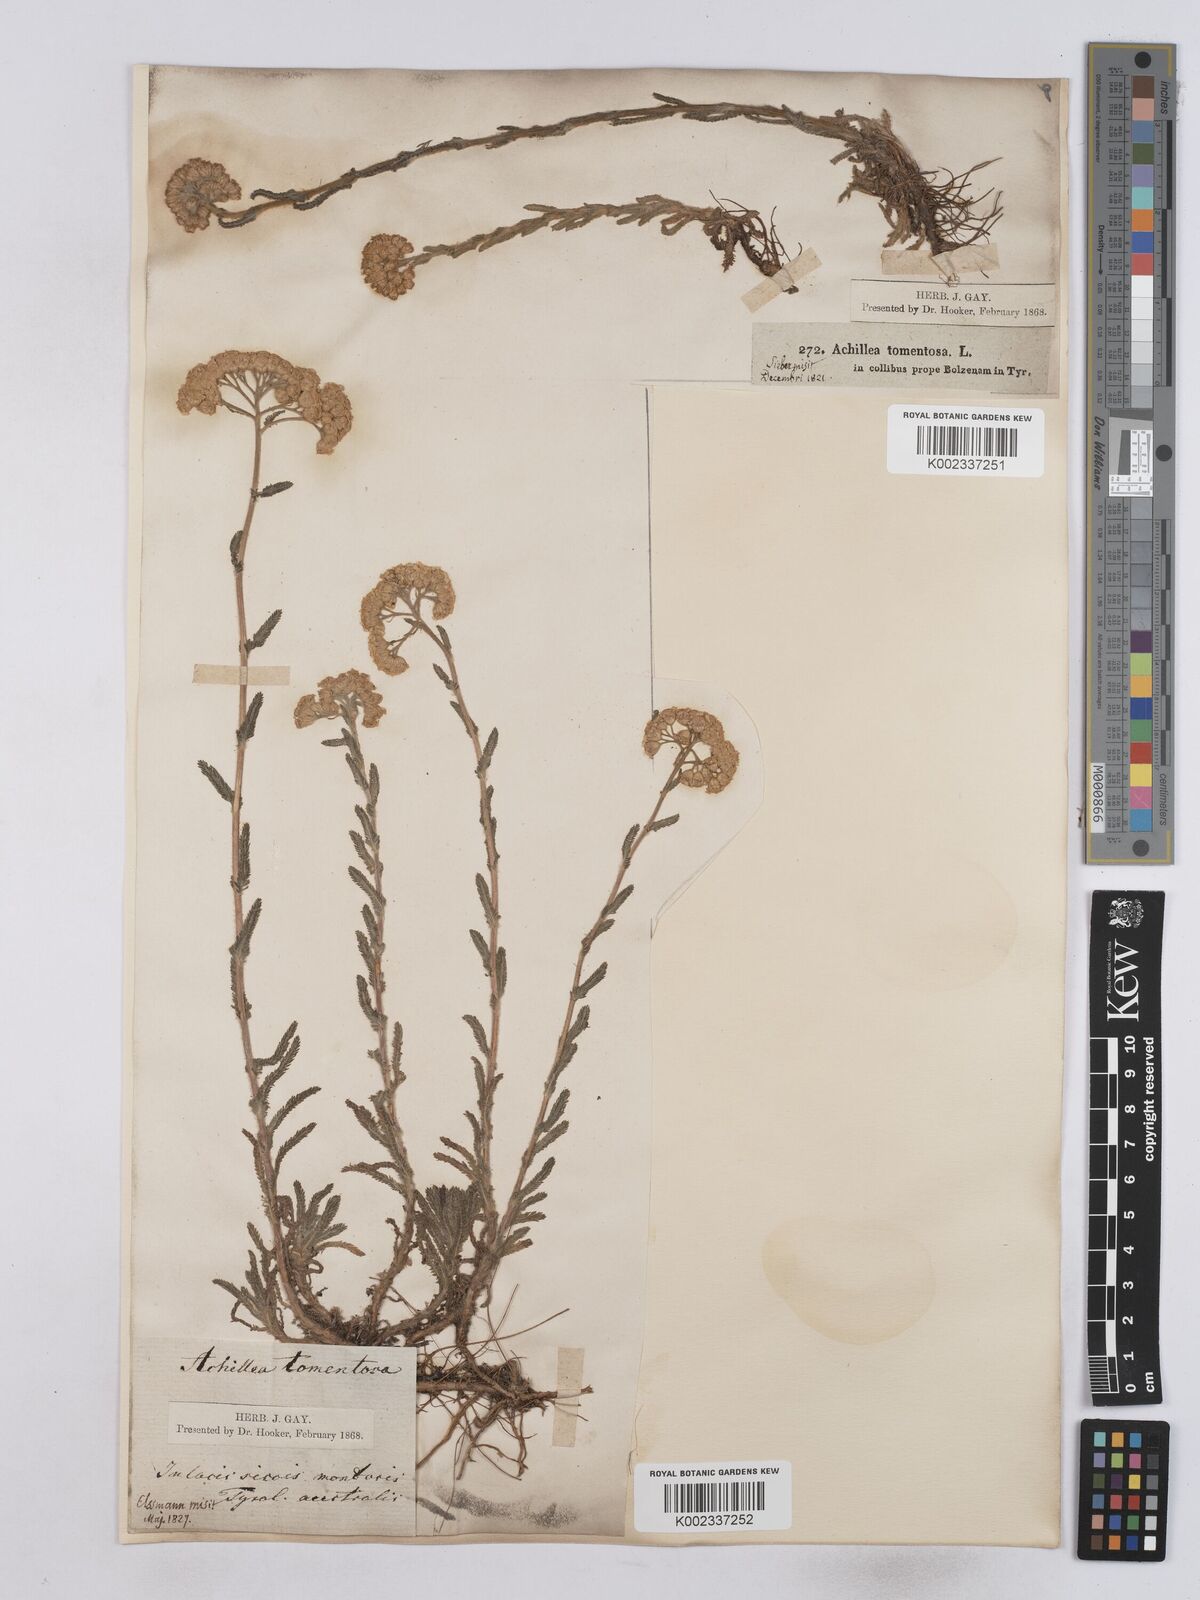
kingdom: Plantae
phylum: Tracheophyta
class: Magnoliopsida
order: Asterales
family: Asteraceae
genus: Achillea
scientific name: Achillea tomentosa
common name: Yellow milfoil
